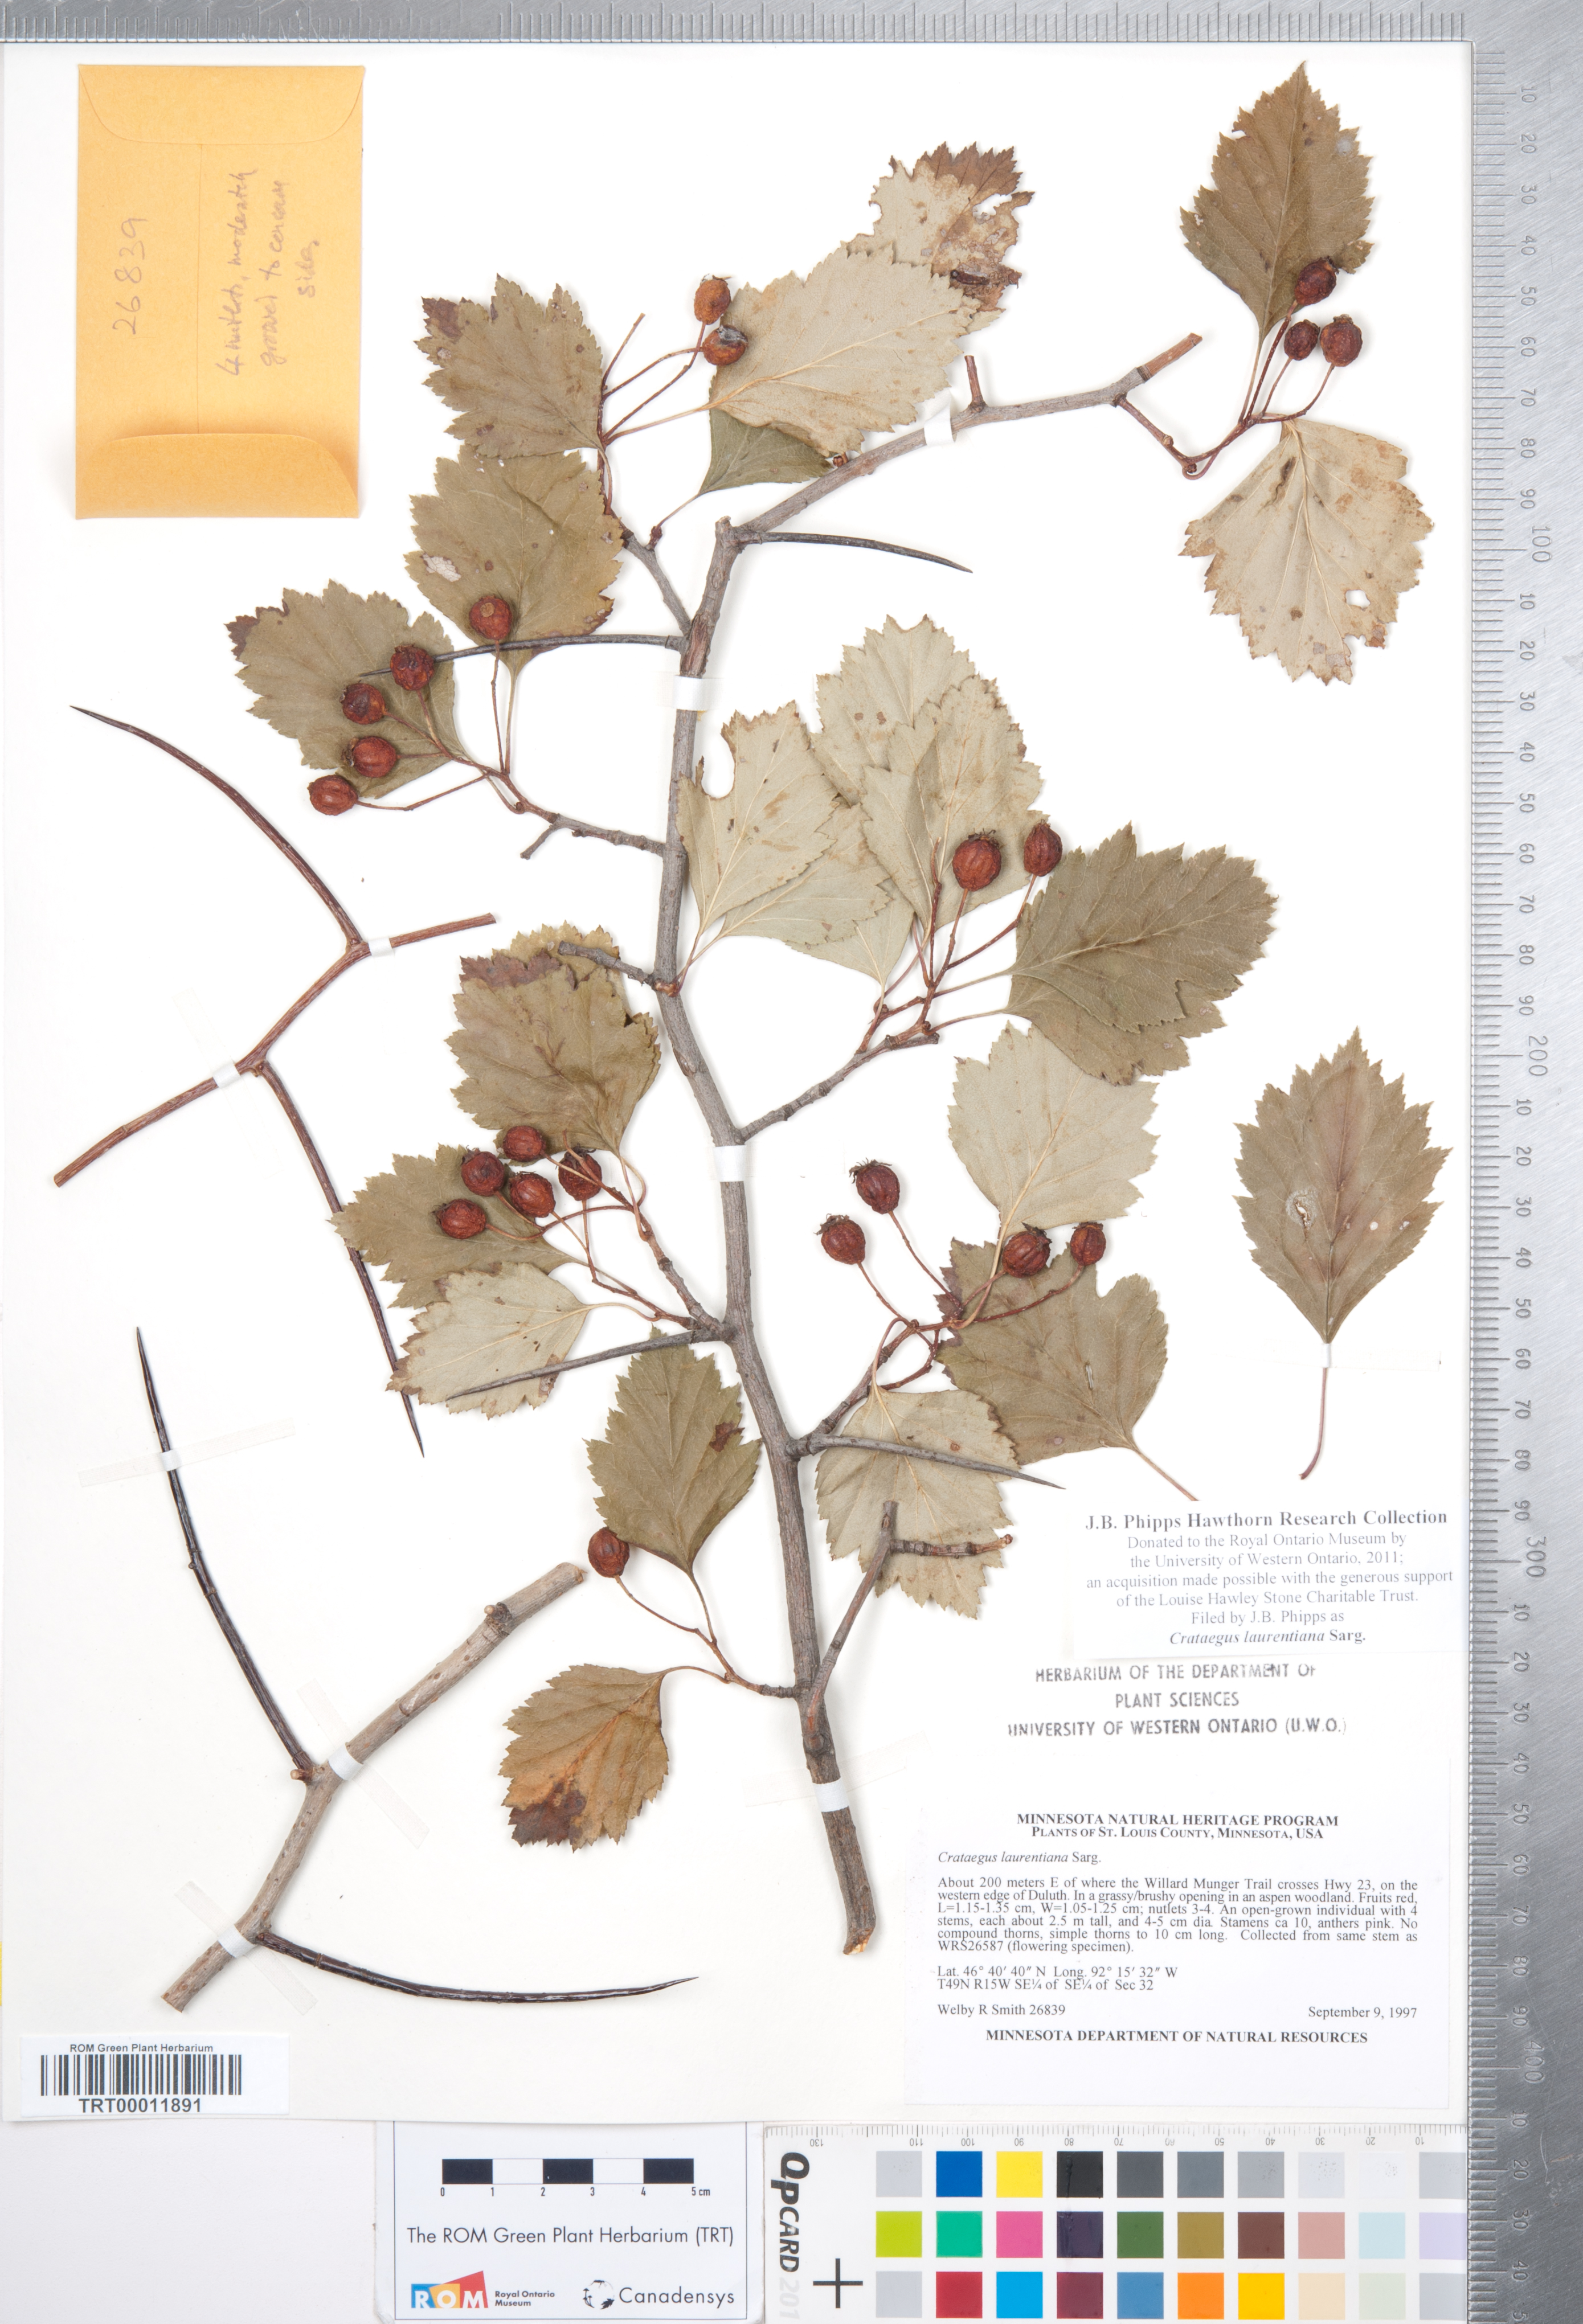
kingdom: Plantae
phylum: Tracheophyta
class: Magnoliopsida
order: Rosales
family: Rosaceae
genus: Crataegus
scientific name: Crataegus jonesiae
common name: Jones' hawthorn
